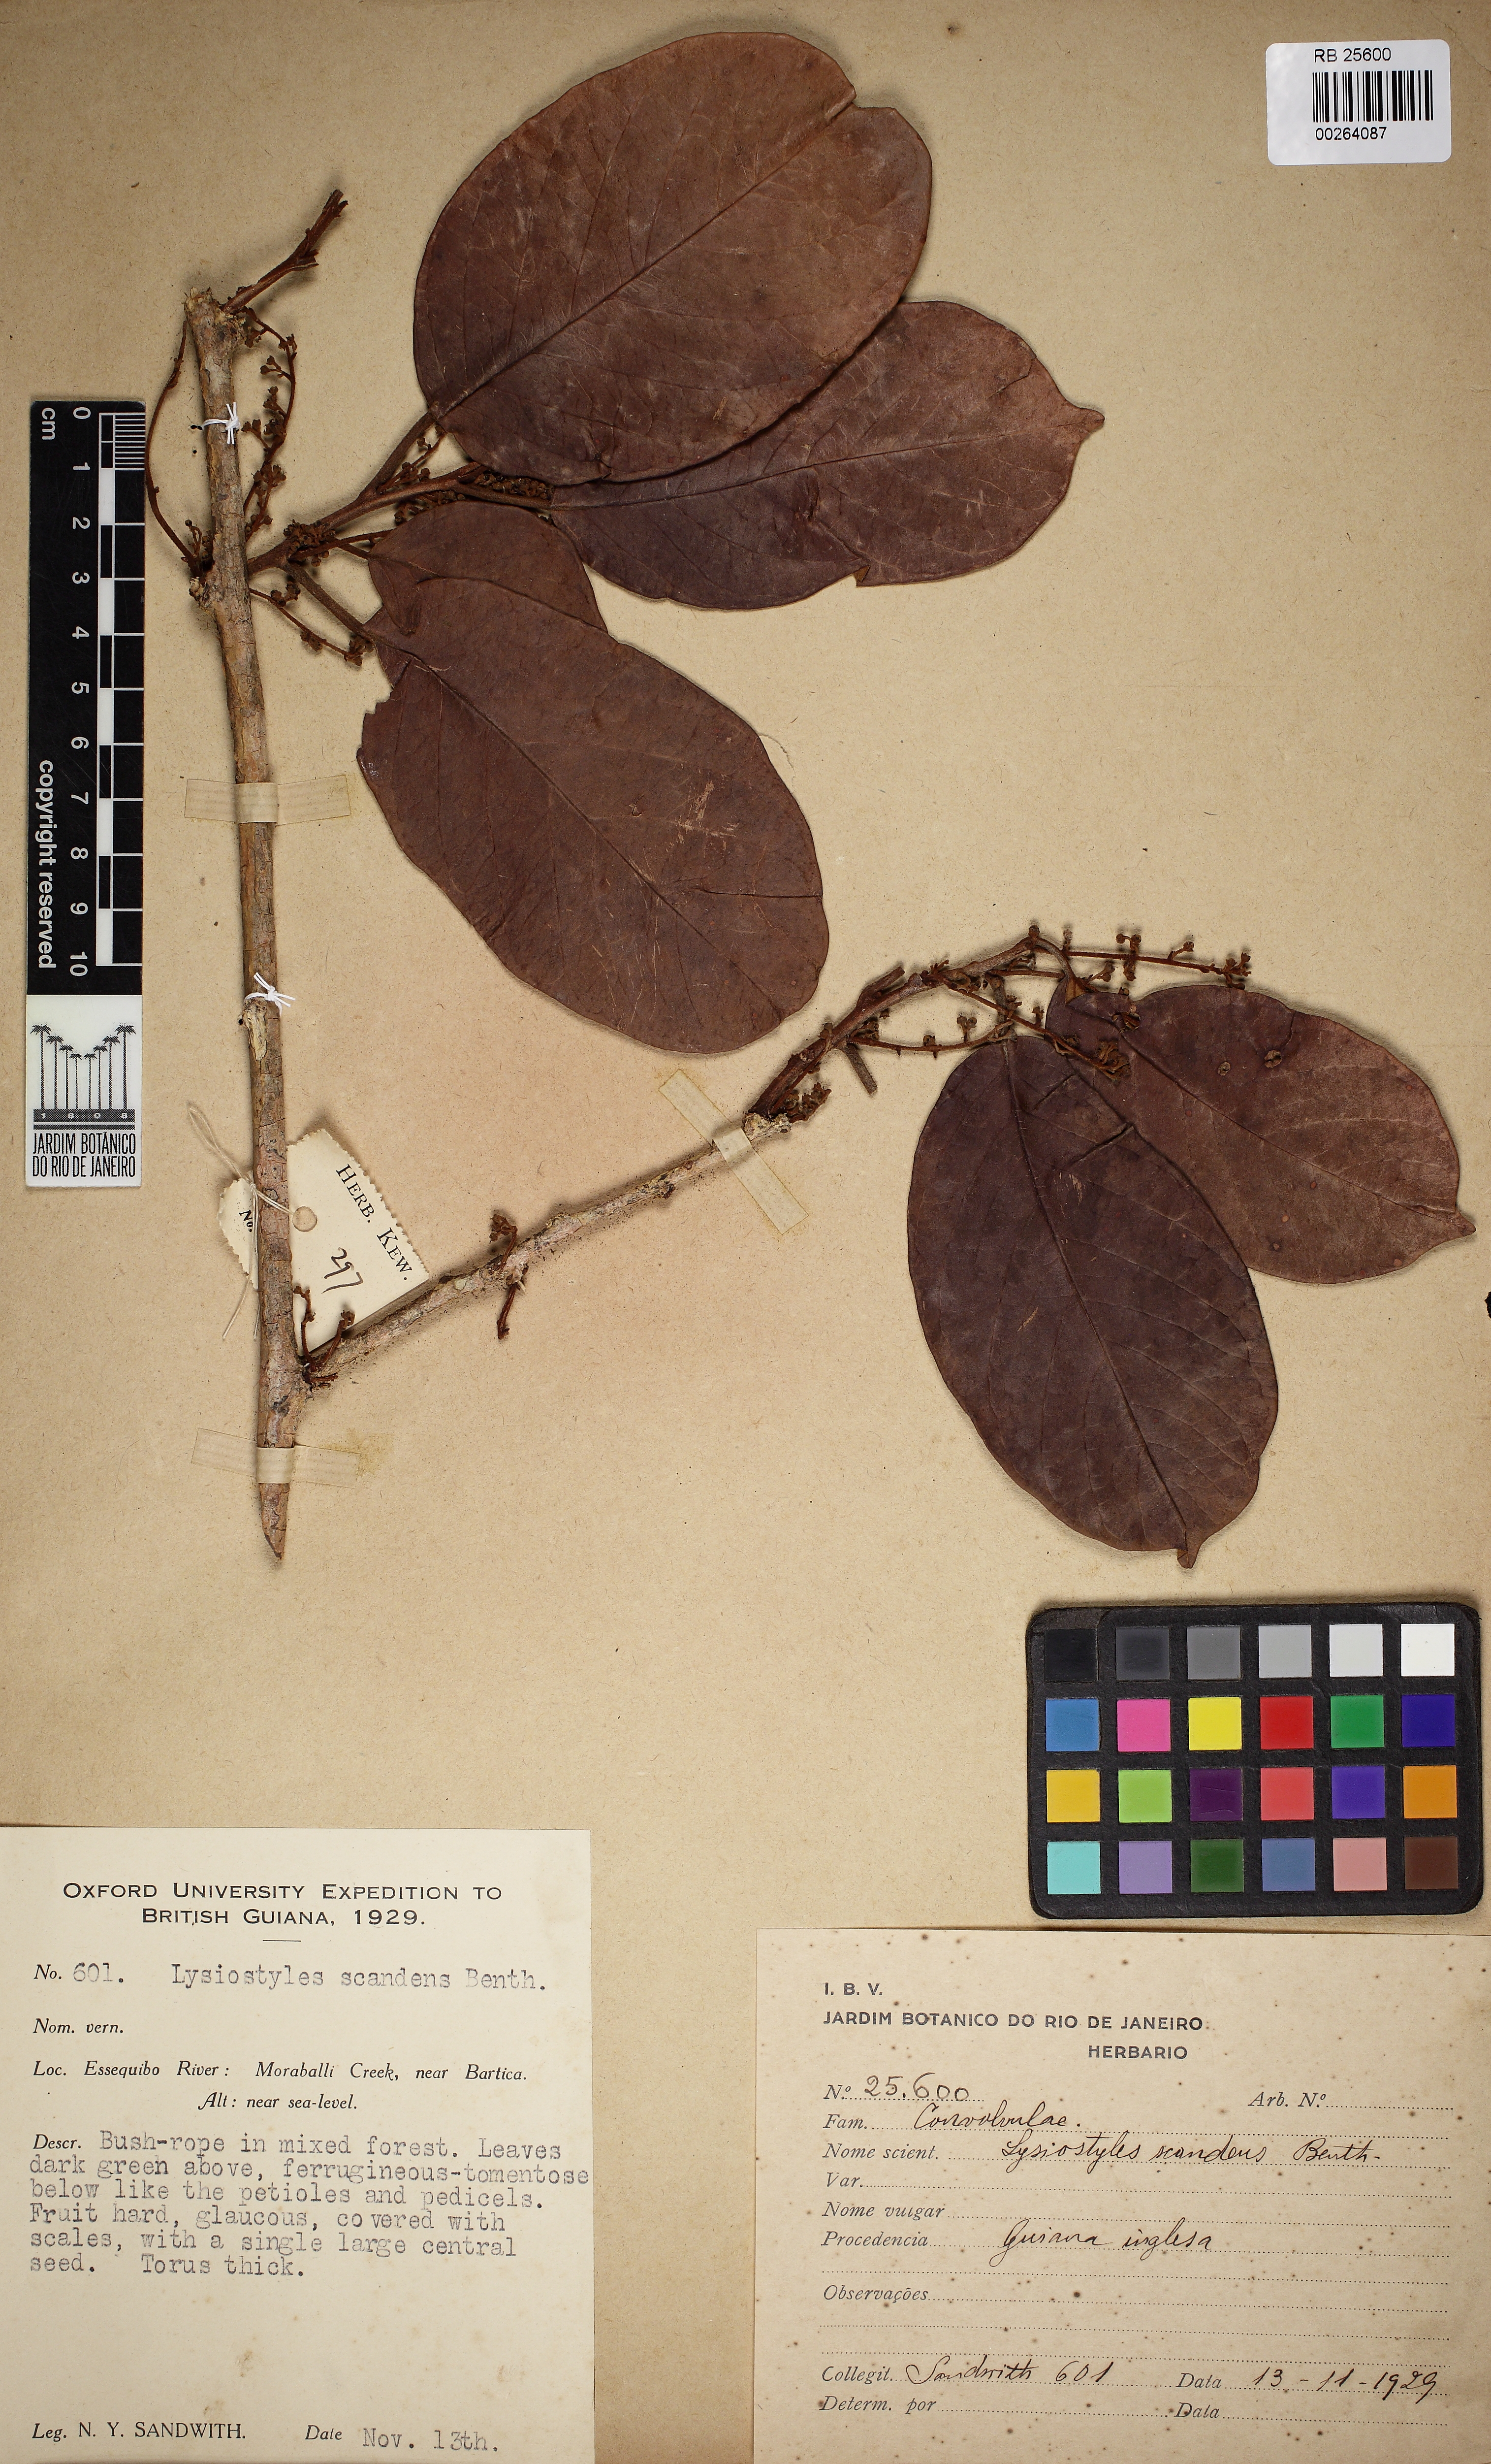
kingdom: Plantae
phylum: Tracheophyta
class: Magnoliopsida
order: Solanales
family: Convolvulaceae
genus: Lysiostyles
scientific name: Lysiostyles scandens
